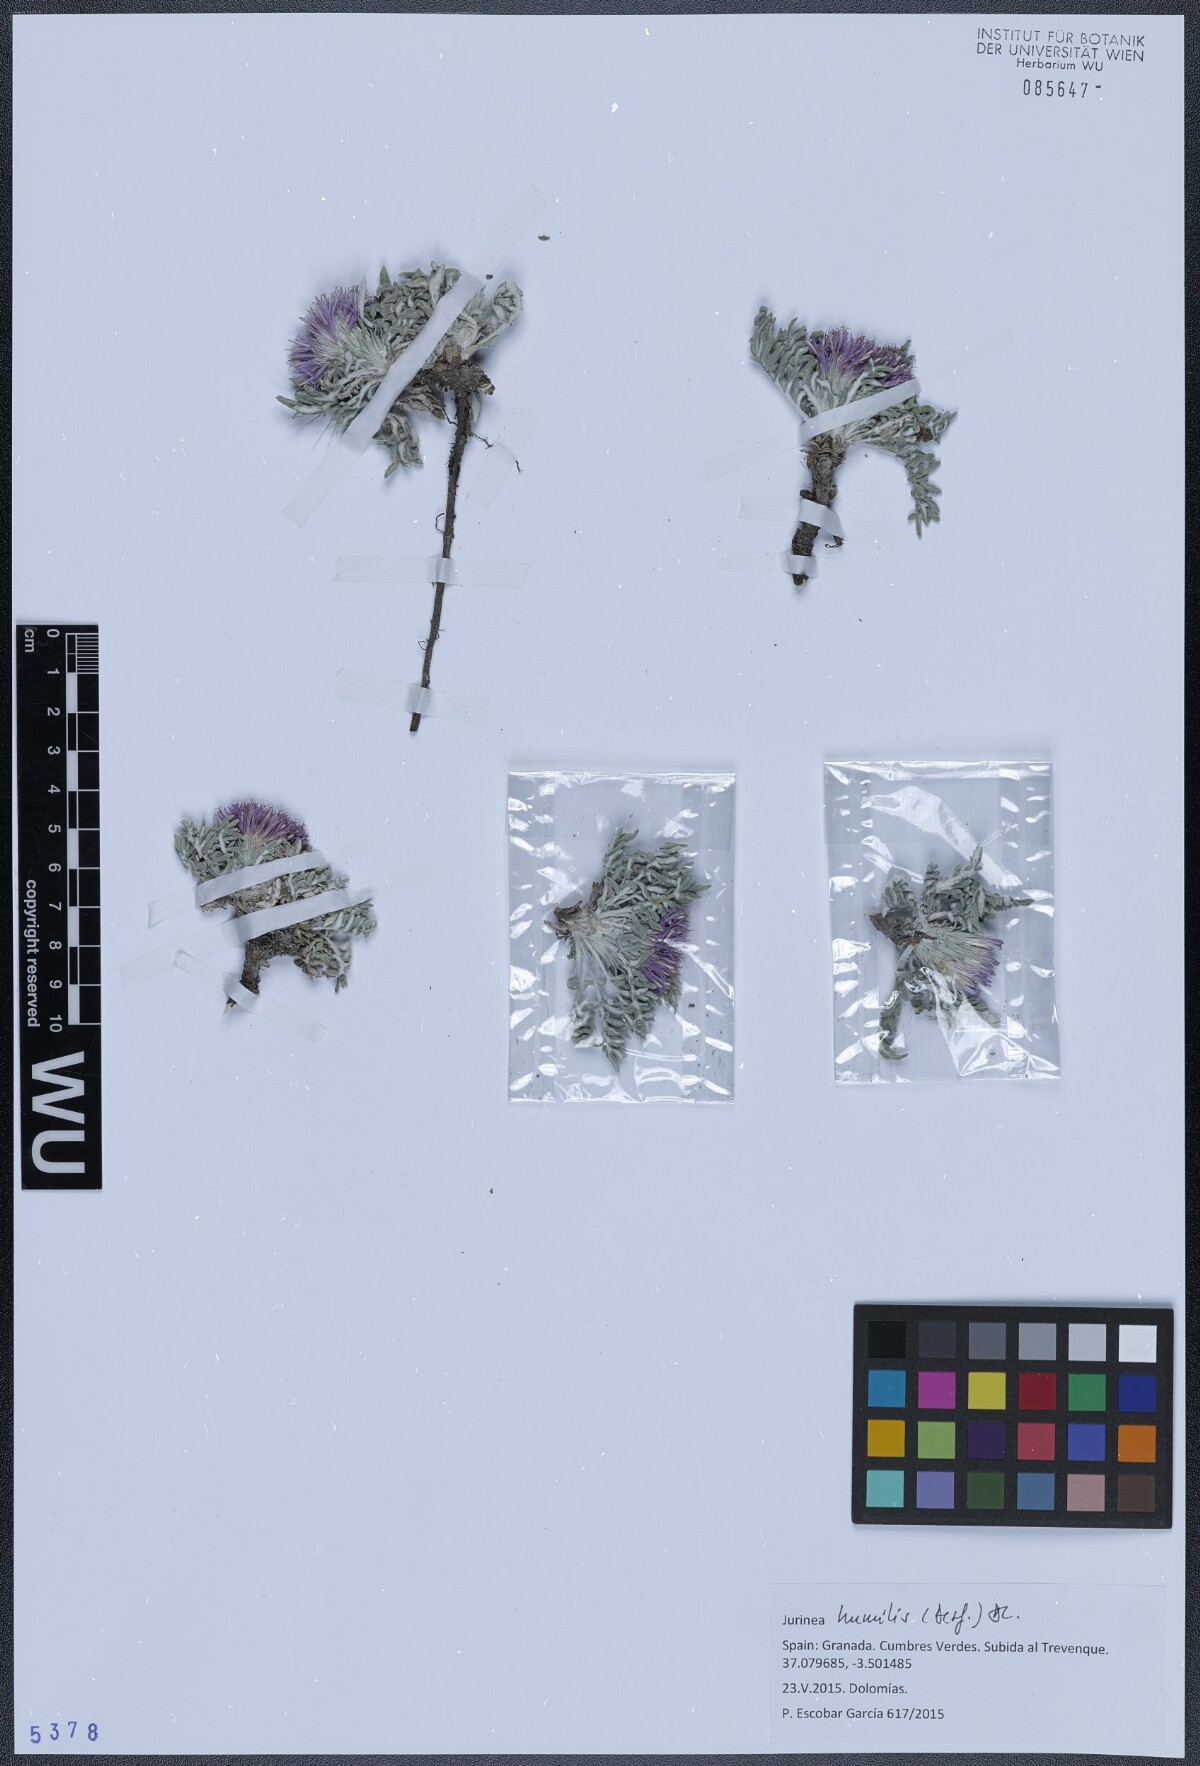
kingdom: Plantae
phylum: Tracheophyta
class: Magnoliopsida
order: Asterales
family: Asteraceae
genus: Jurinea
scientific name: Jurinea humilis
